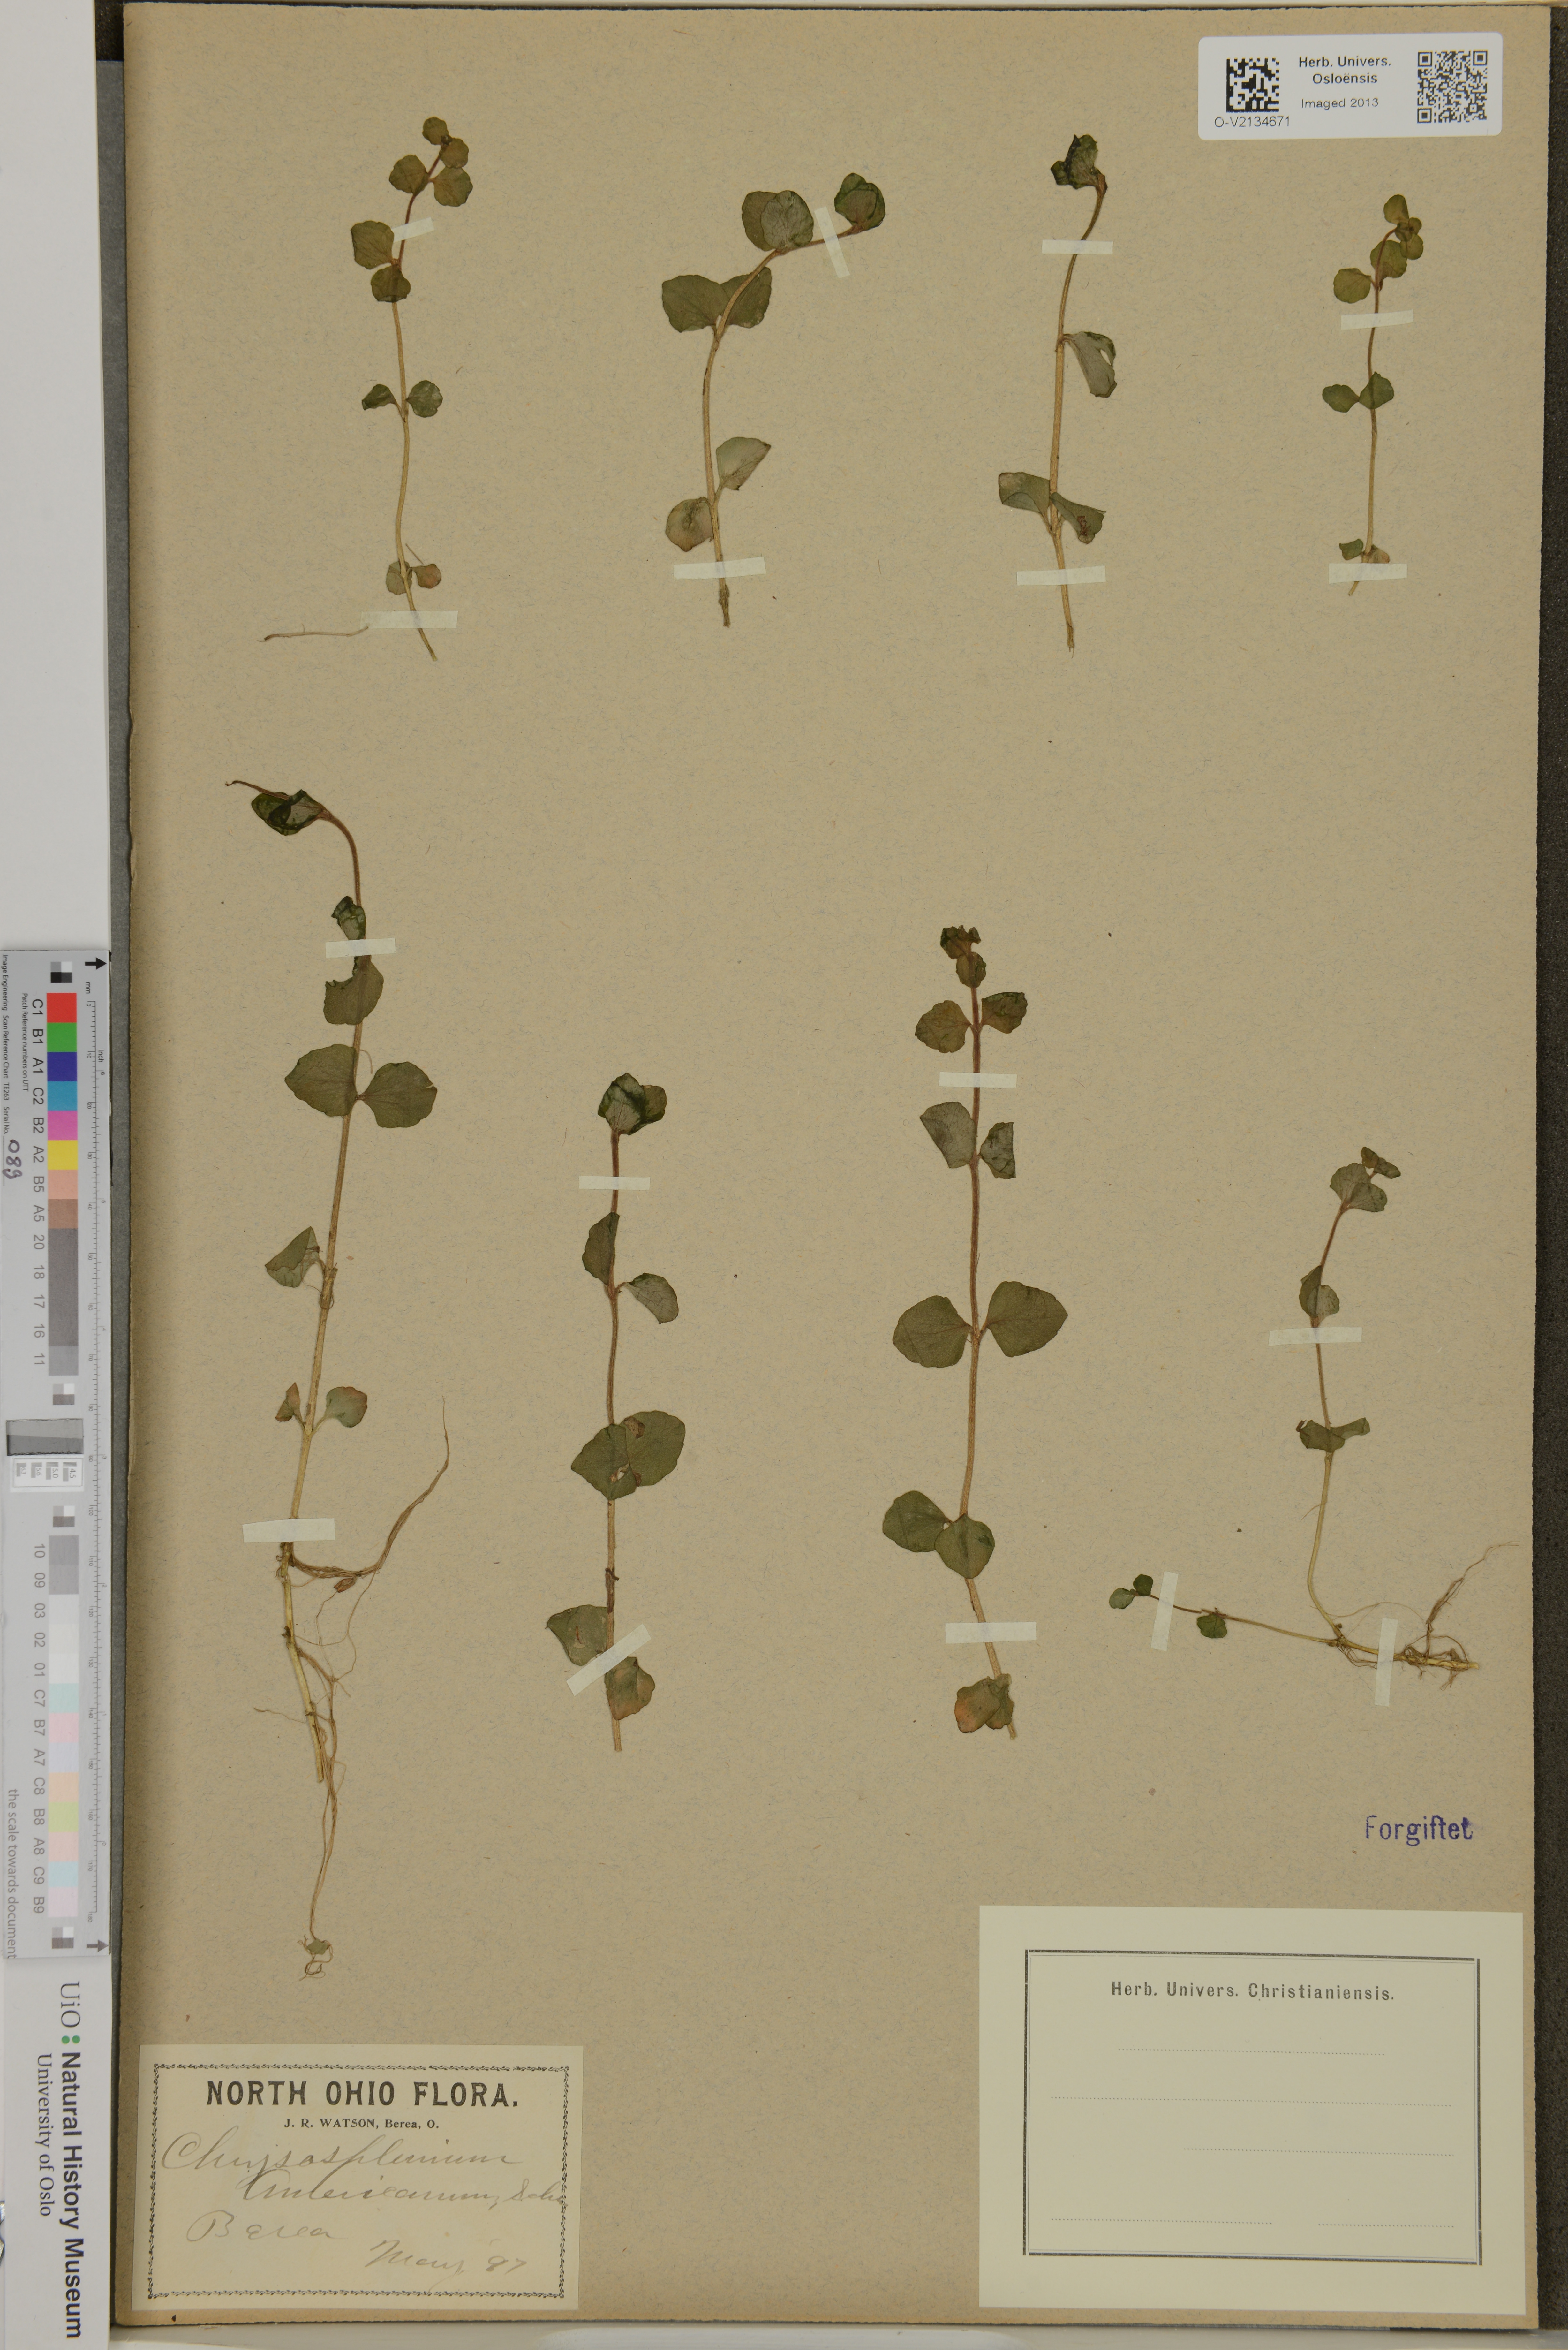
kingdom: Plantae
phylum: Tracheophyta
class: Magnoliopsida
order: Saxifragales
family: Saxifragaceae
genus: Chrysosplenium
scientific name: Chrysosplenium americanum
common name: American golden-saxifrage
